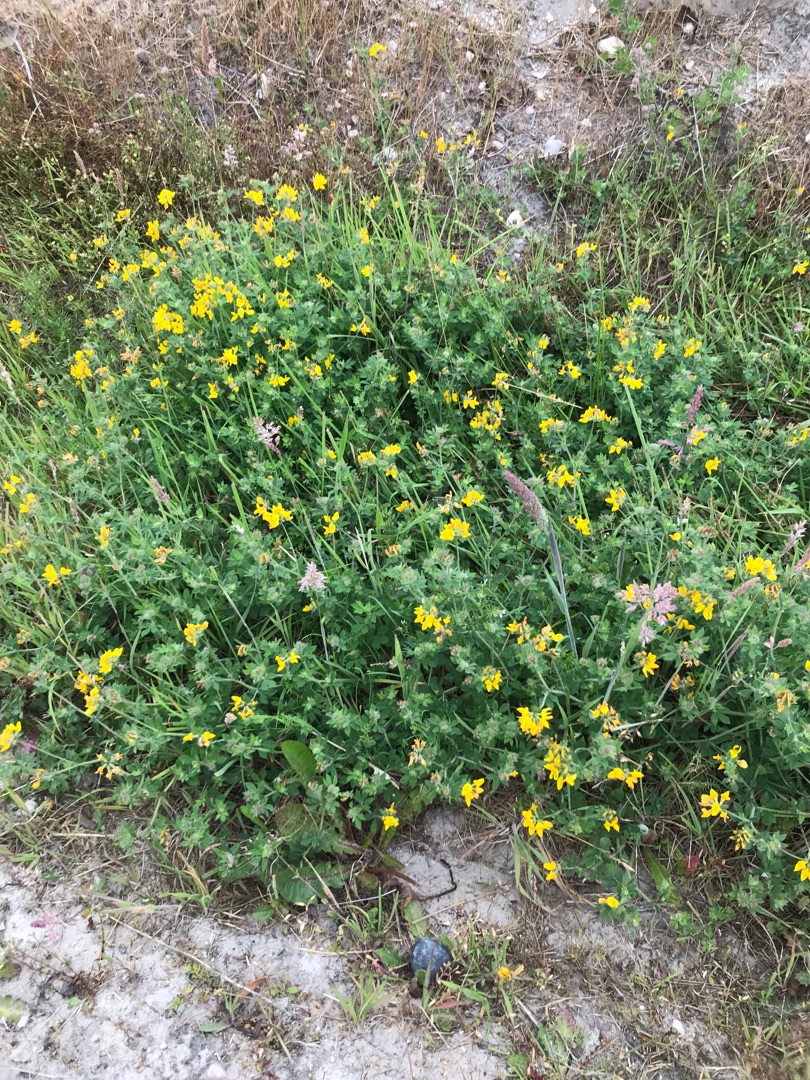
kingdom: Plantae
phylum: Tracheophyta
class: Magnoliopsida
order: Fabales
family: Fabaceae
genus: Lotus
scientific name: Lotus corniculatus
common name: Almindelig kællingetand
